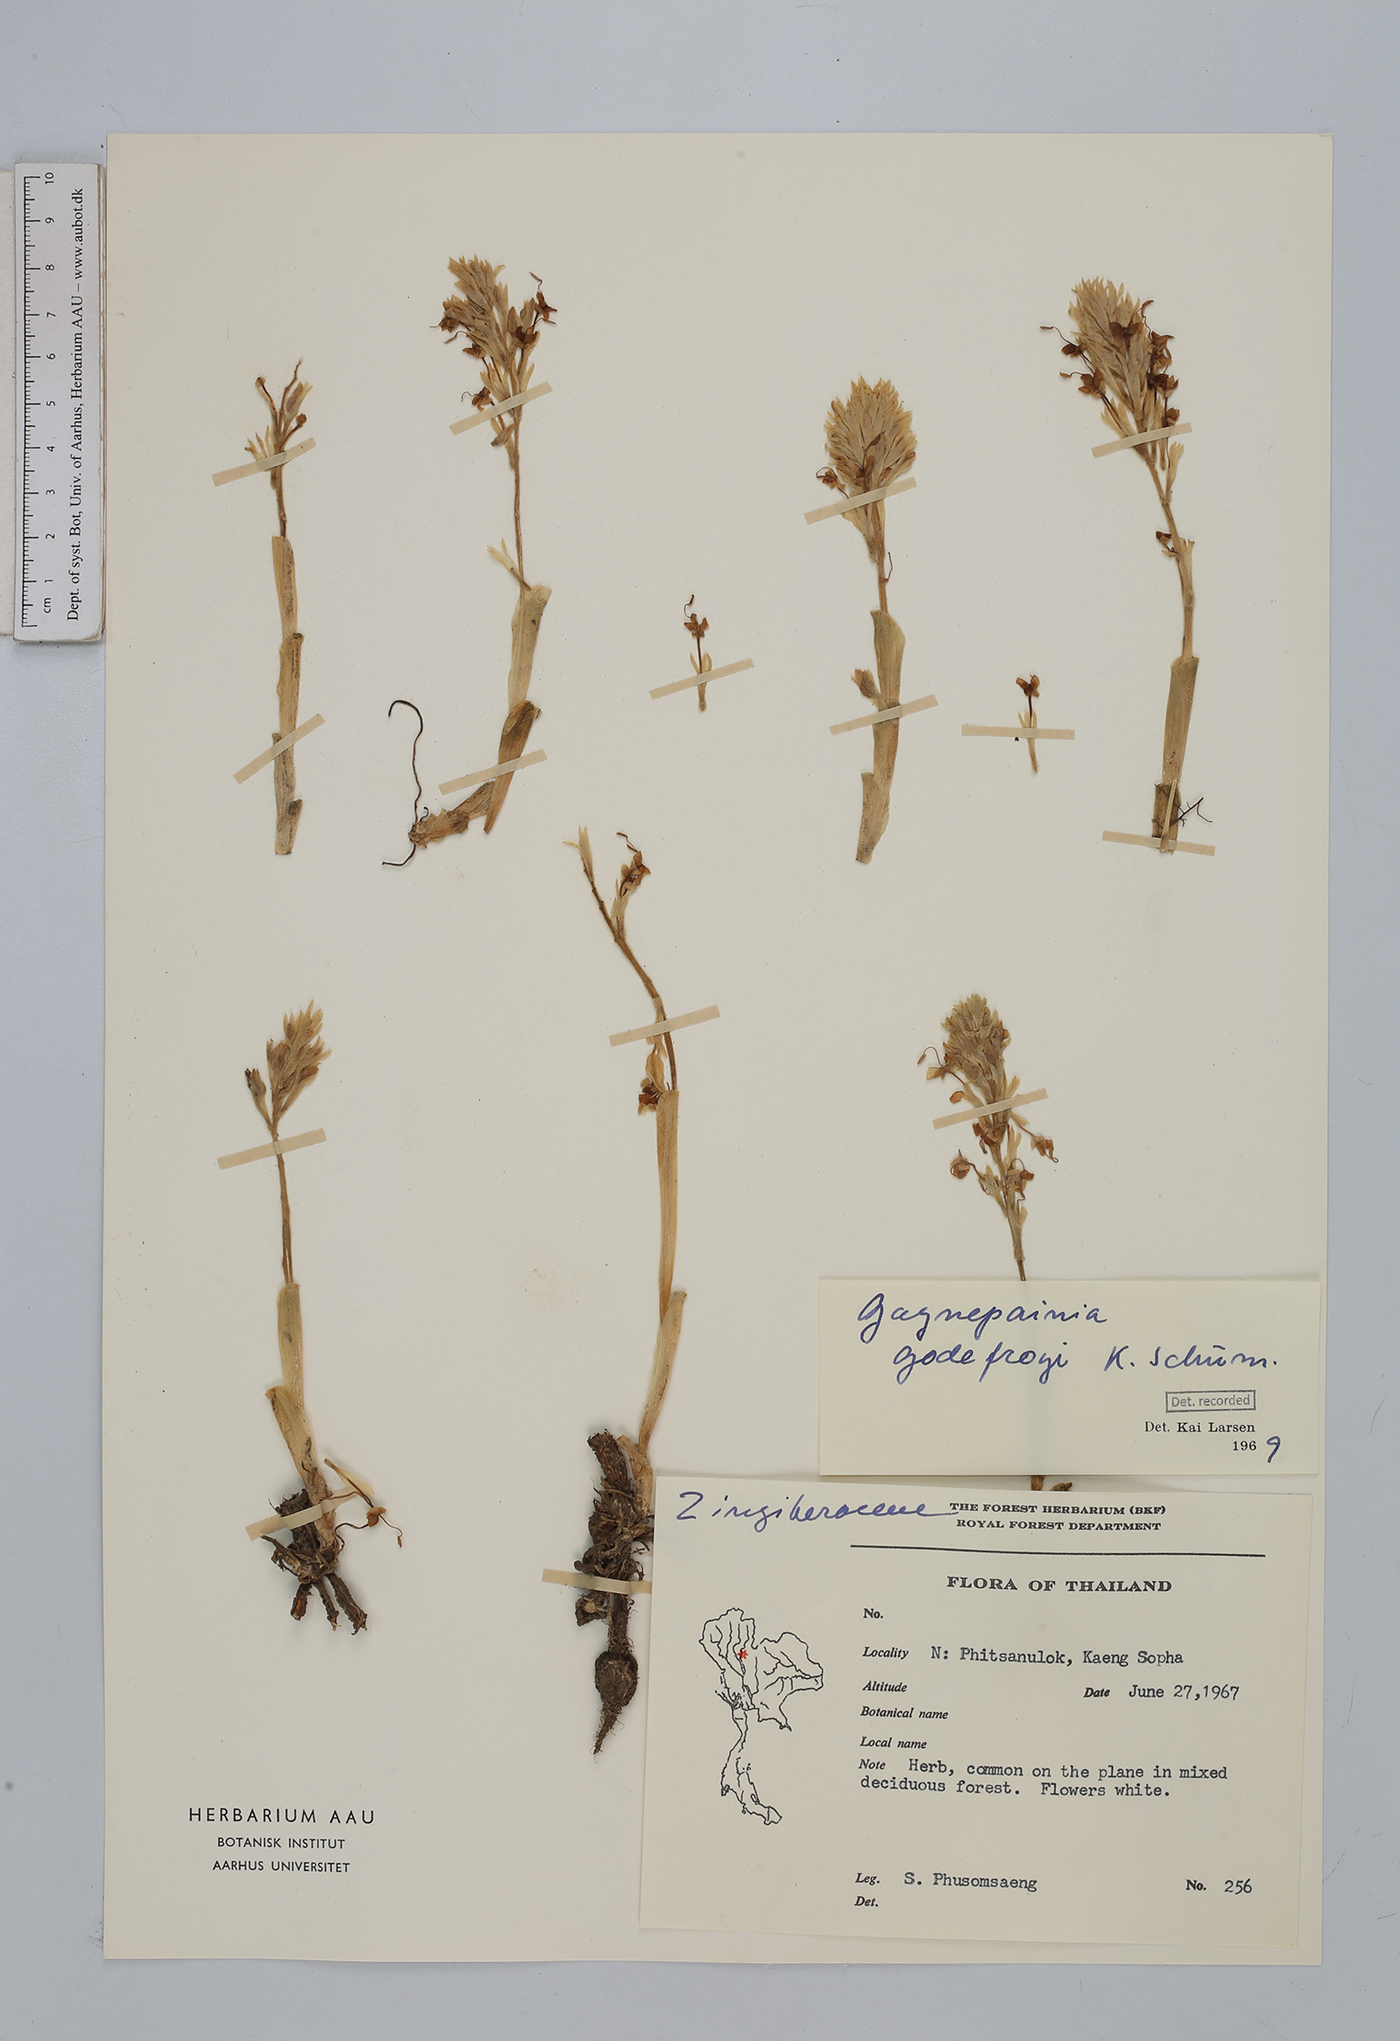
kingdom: Plantae
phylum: Tracheophyta
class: Liliopsida
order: Zingiberales
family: Zingiberaceae
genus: Gagnepainia
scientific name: Gagnepainia godefroyi
